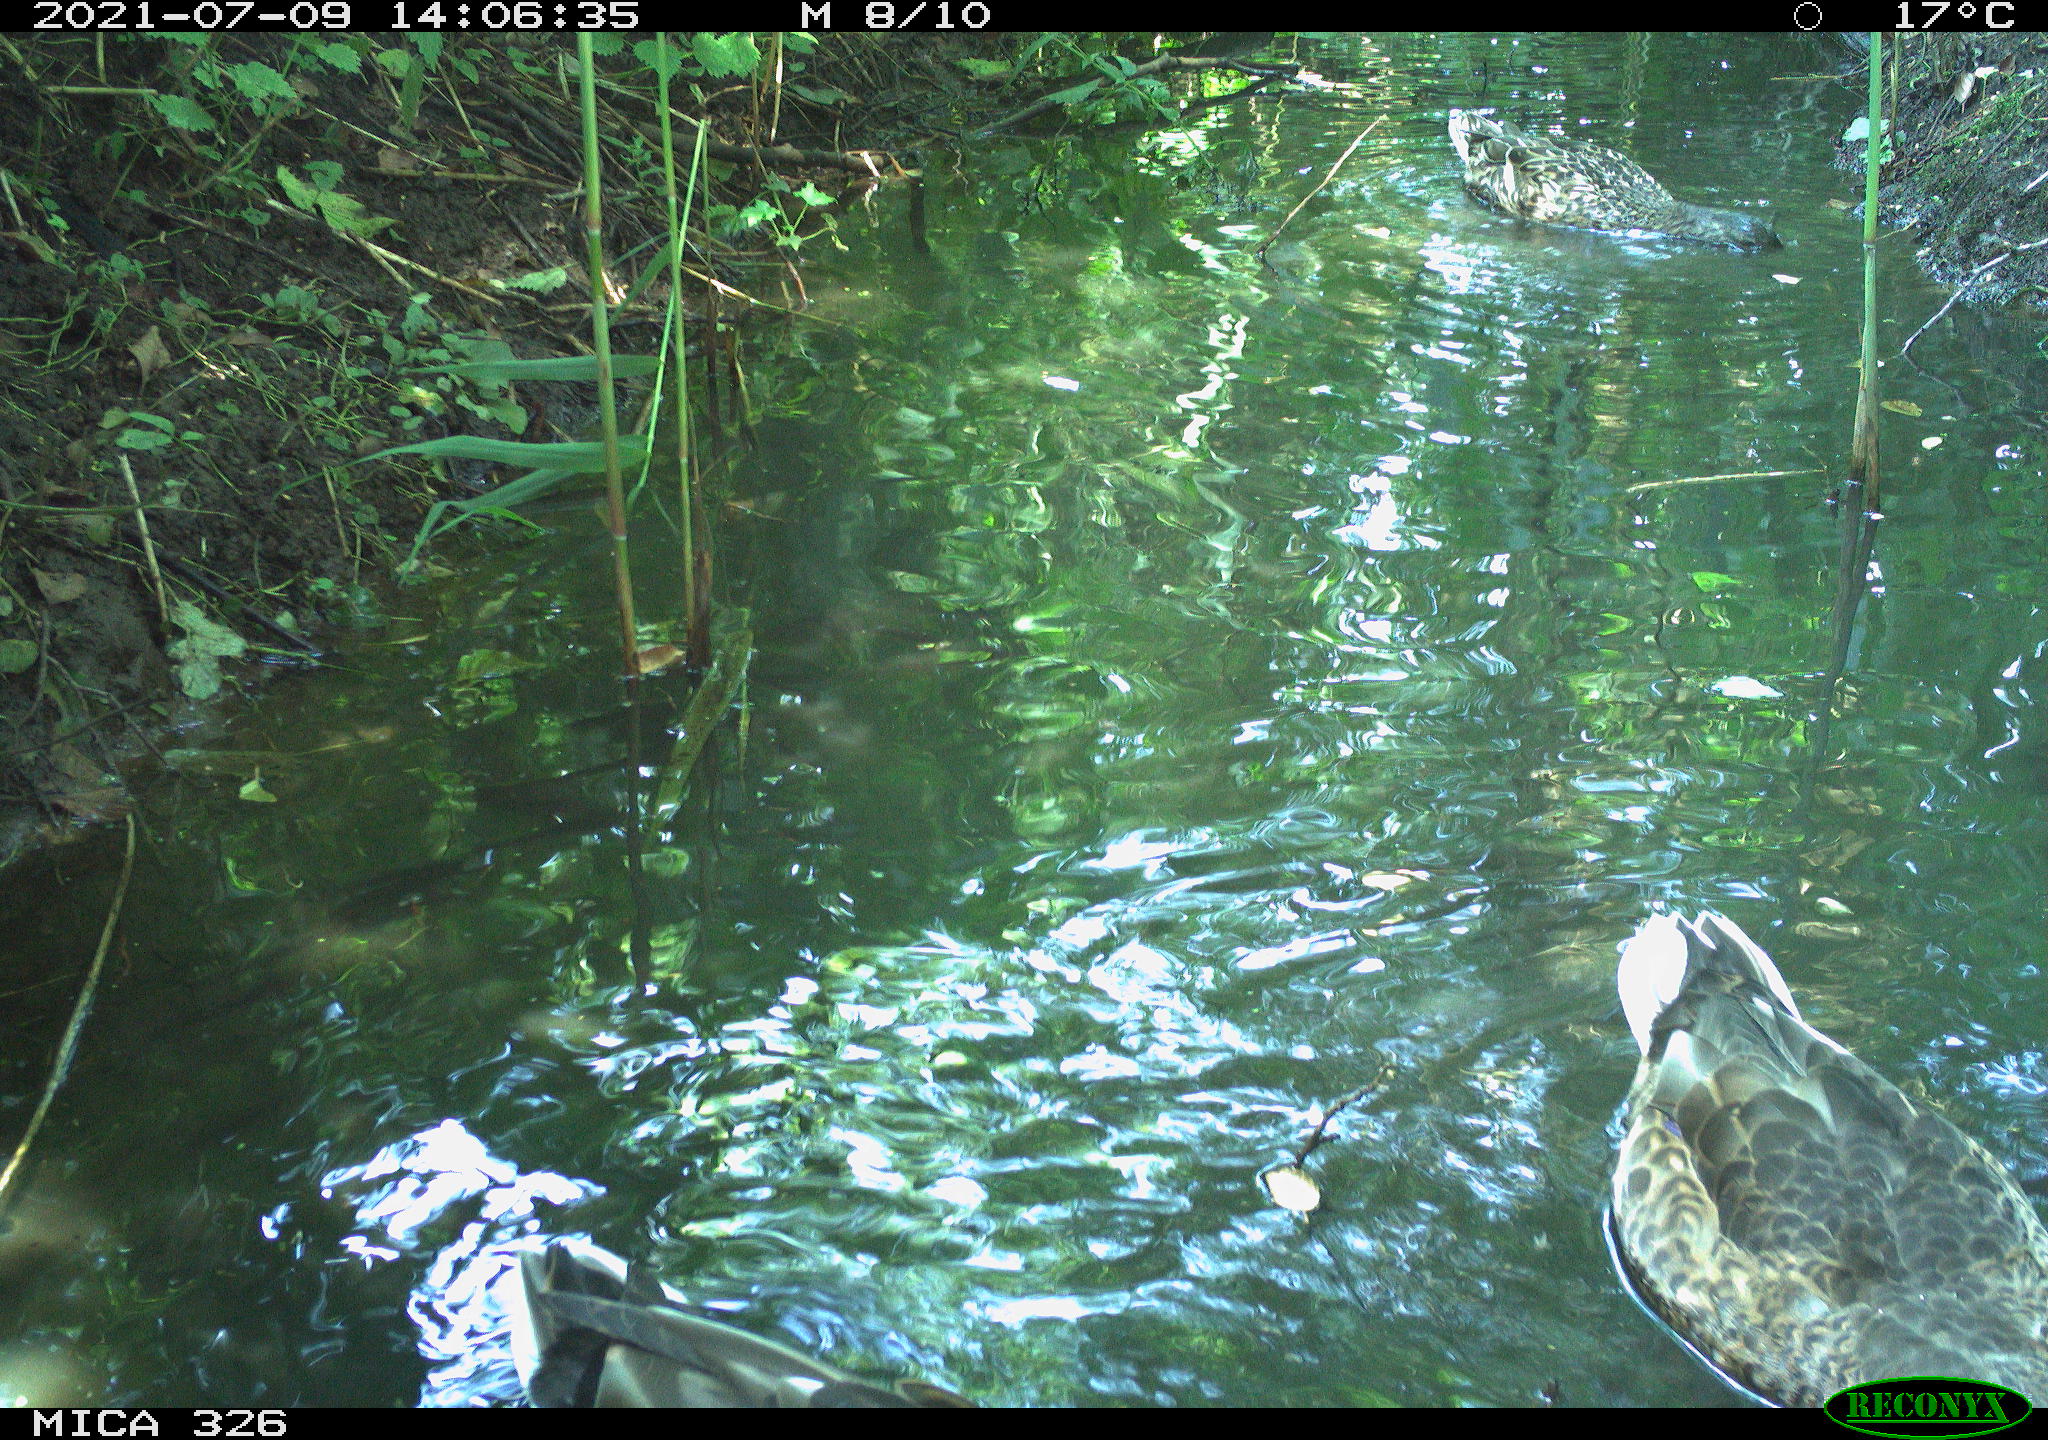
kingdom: Animalia
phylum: Chordata
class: Aves
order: Anseriformes
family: Anatidae
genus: Anas
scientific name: Anas platyrhynchos
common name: Mallard
